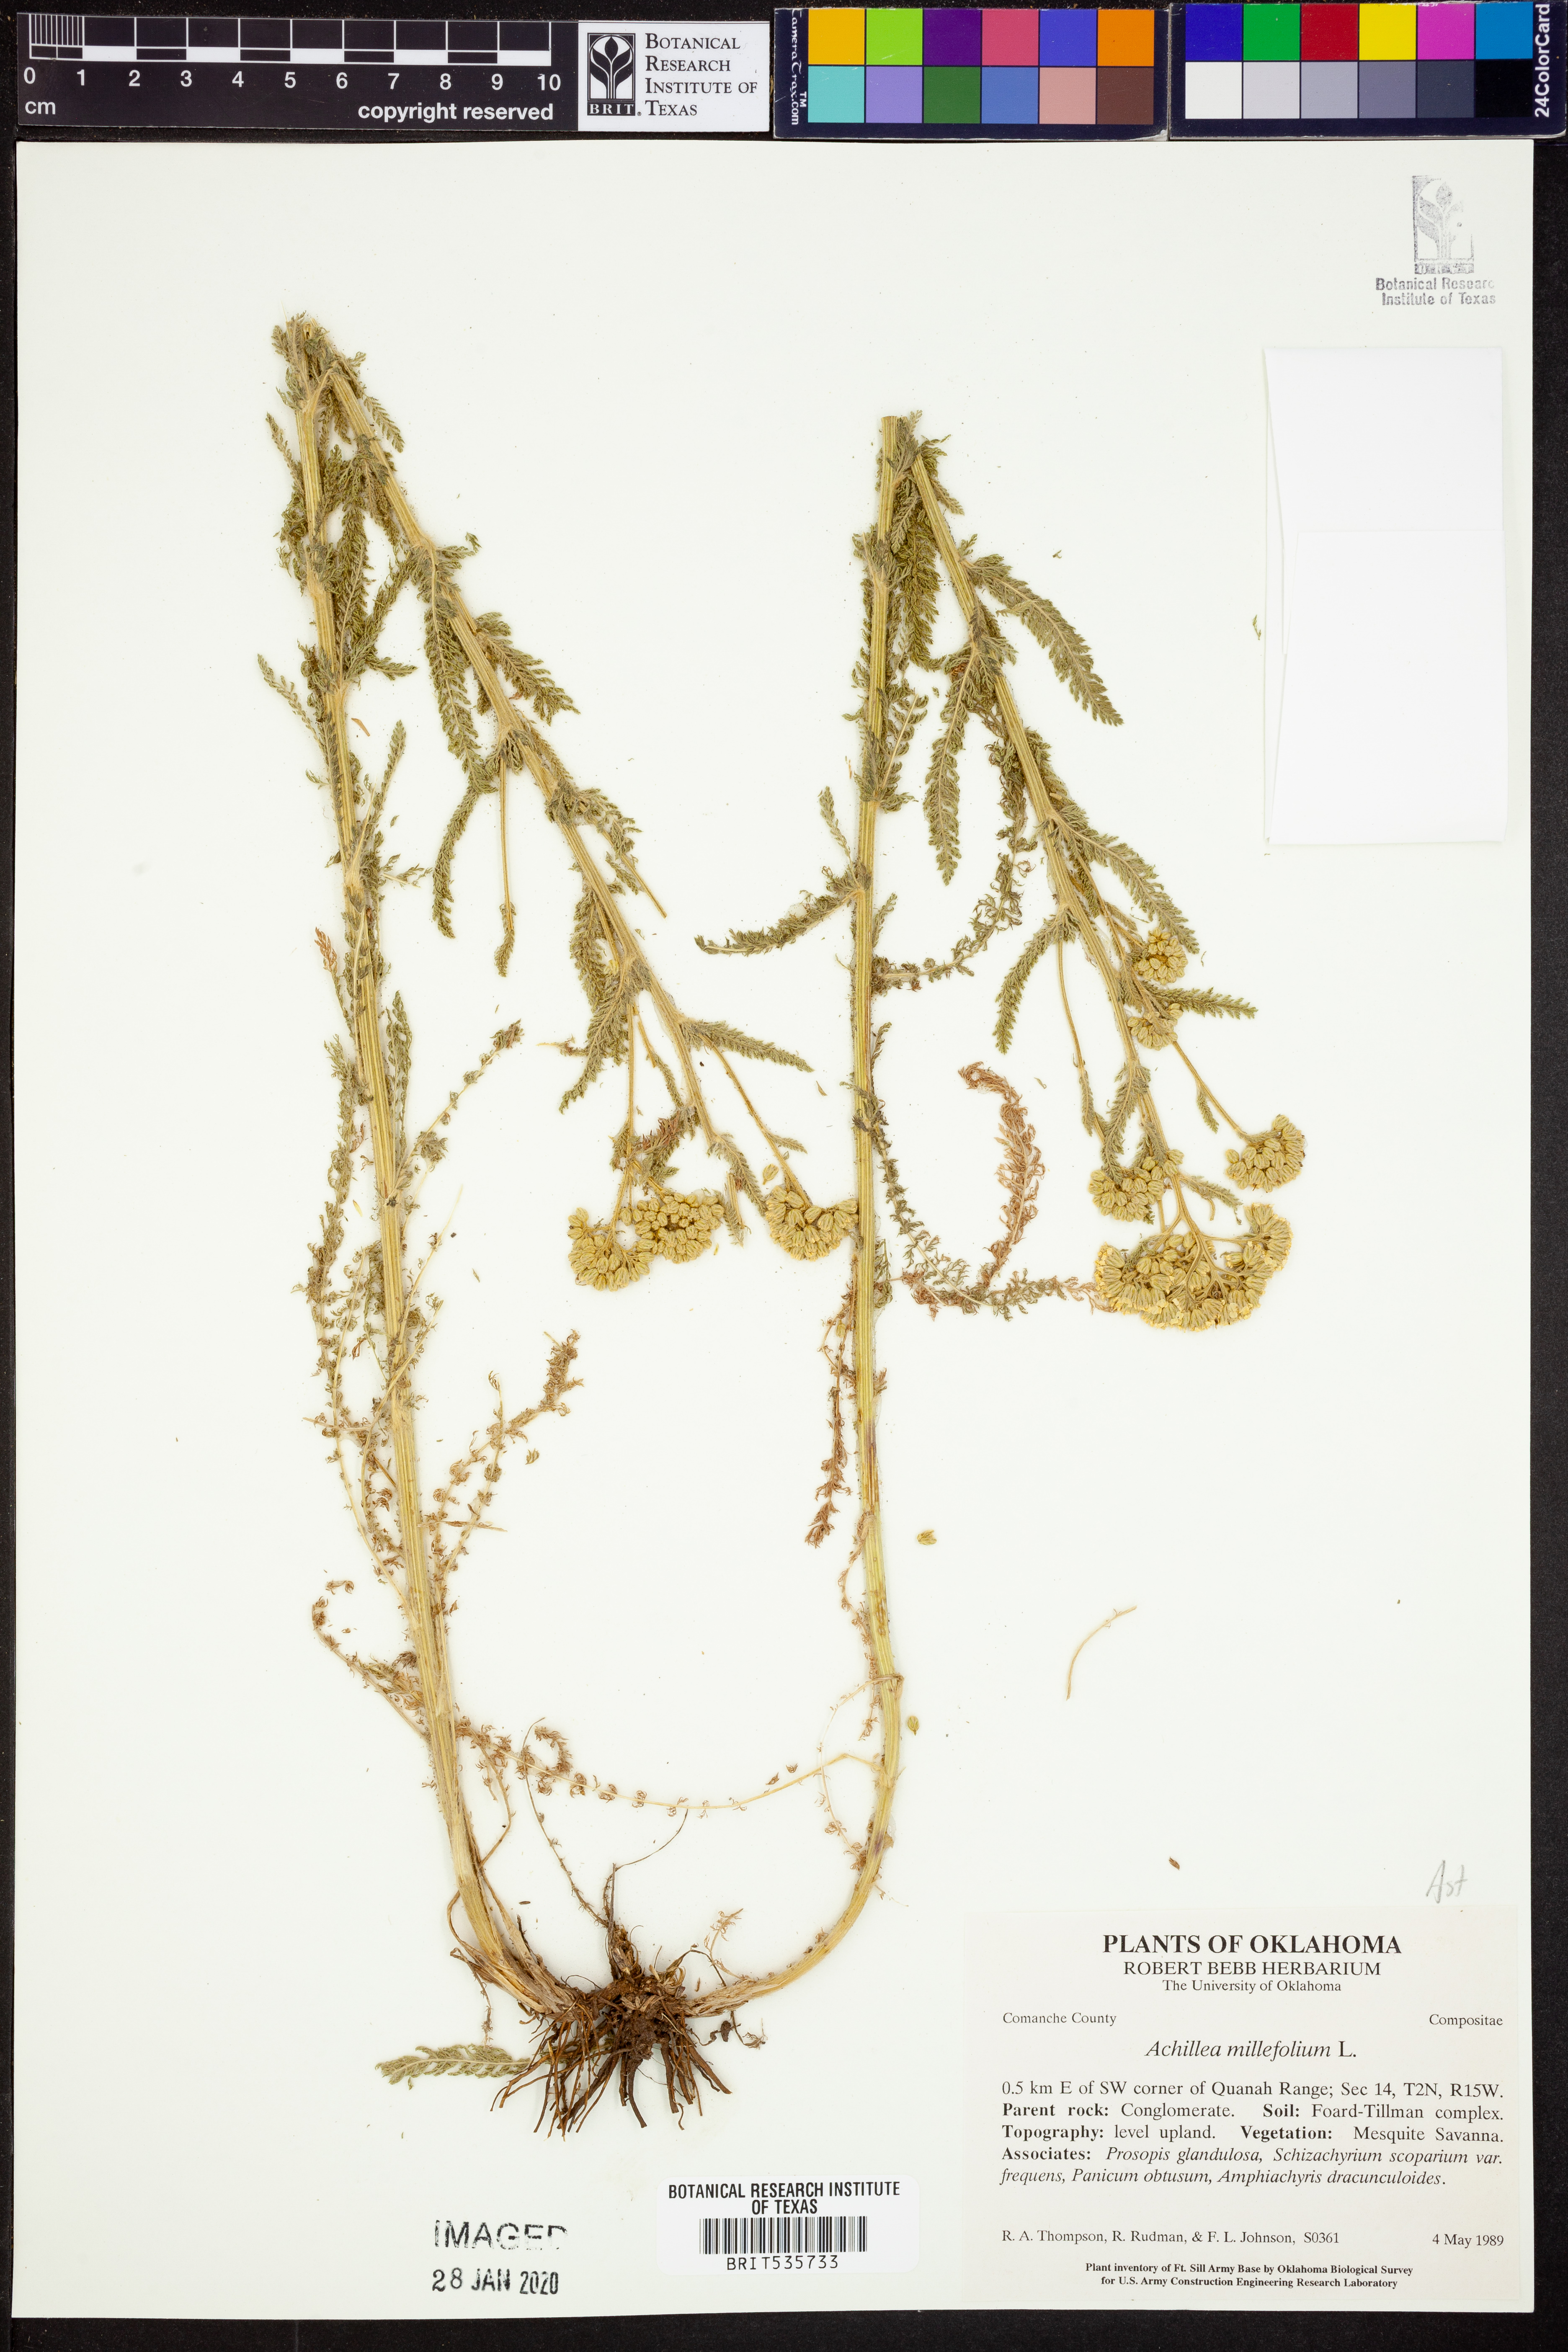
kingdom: Plantae
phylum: Tracheophyta
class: Magnoliopsida
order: Asterales
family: Asteraceae
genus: Achillea
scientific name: Achillea millefolium
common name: Yarrow
